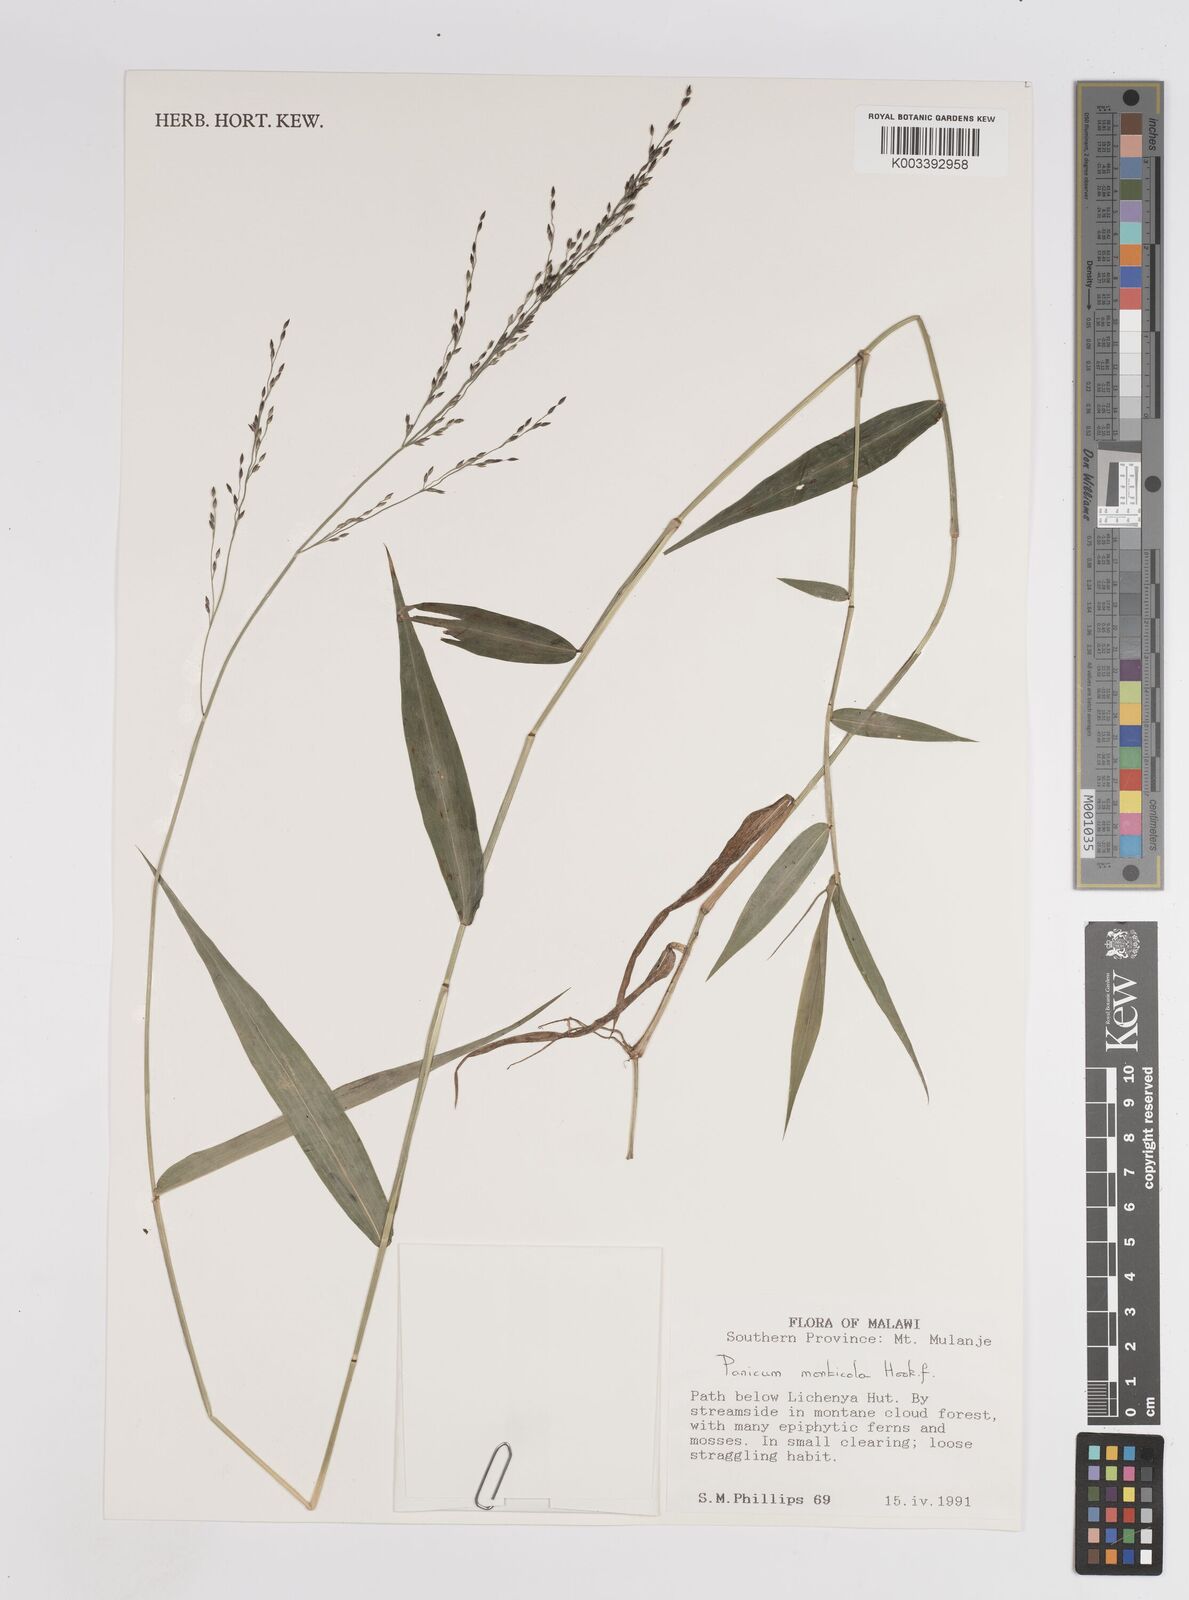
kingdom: Plantae
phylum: Tracheophyta
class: Liliopsida
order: Poales
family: Poaceae
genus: Panicum
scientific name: Panicum monticola
